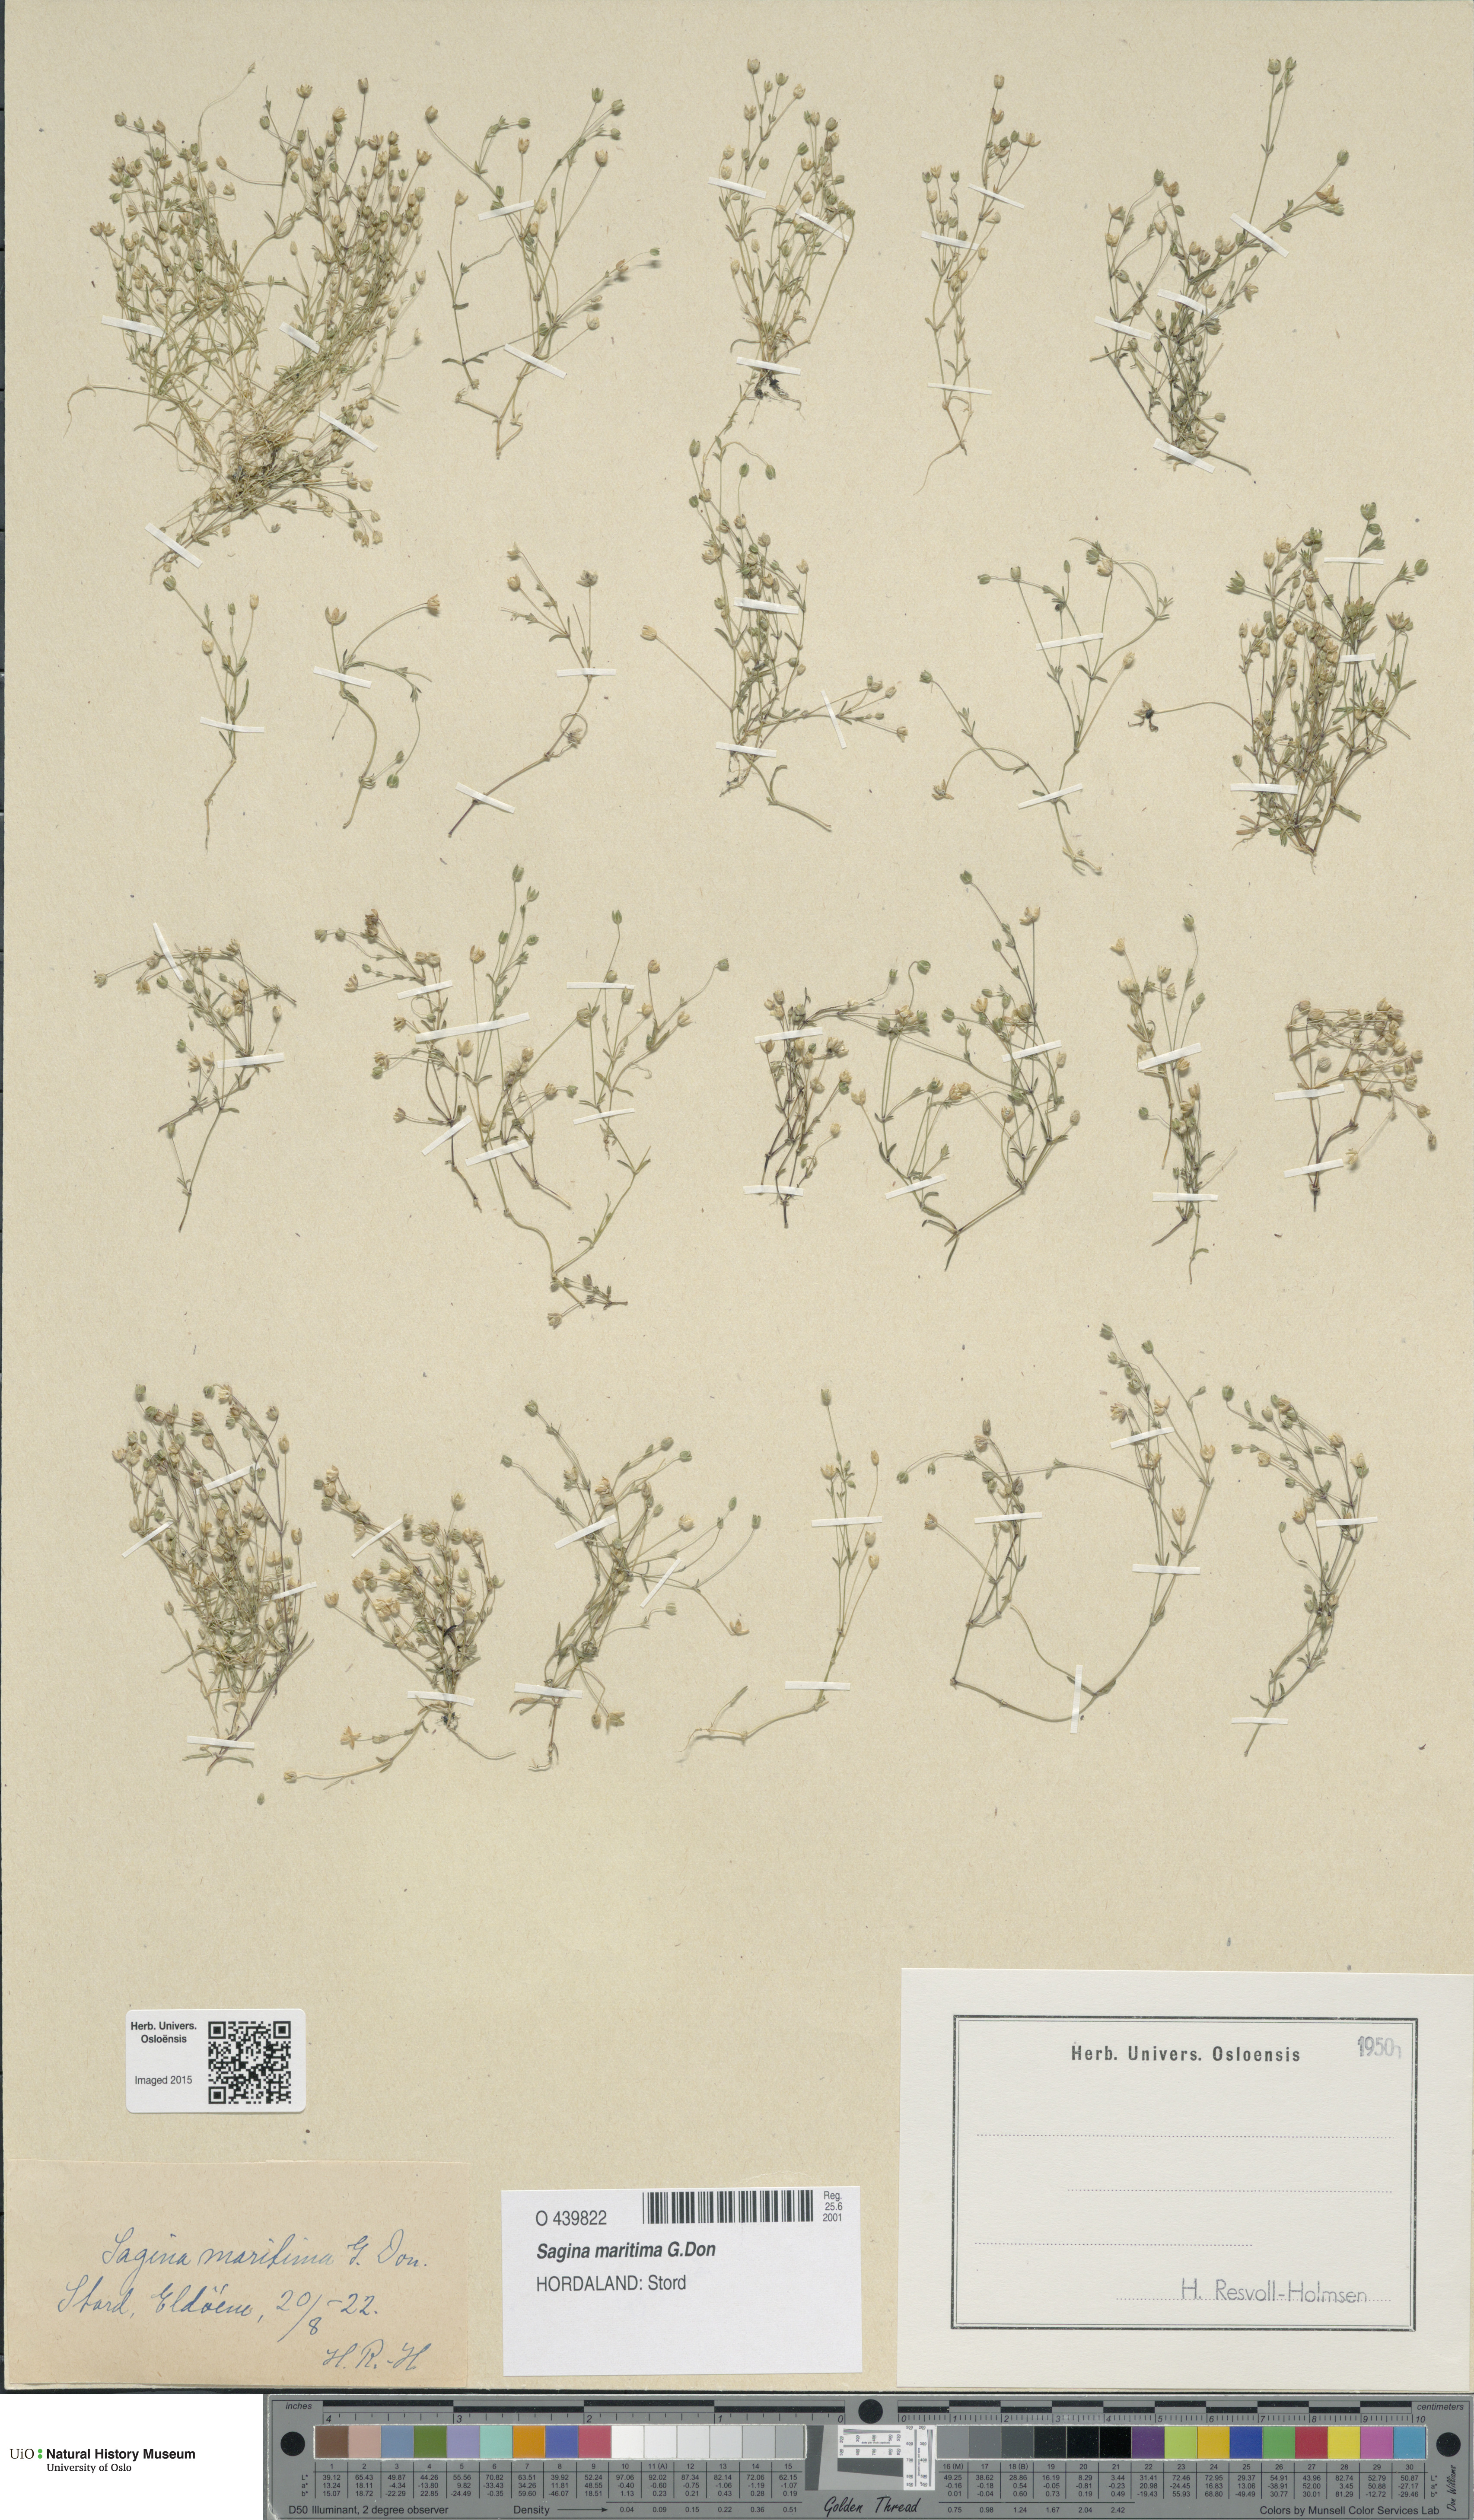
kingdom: Plantae
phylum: Tracheophyta
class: Magnoliopsida
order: Caryophyllales
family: Caryophyllaceae
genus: Sagina
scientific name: Sagina maritima
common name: Sea pearlwort
